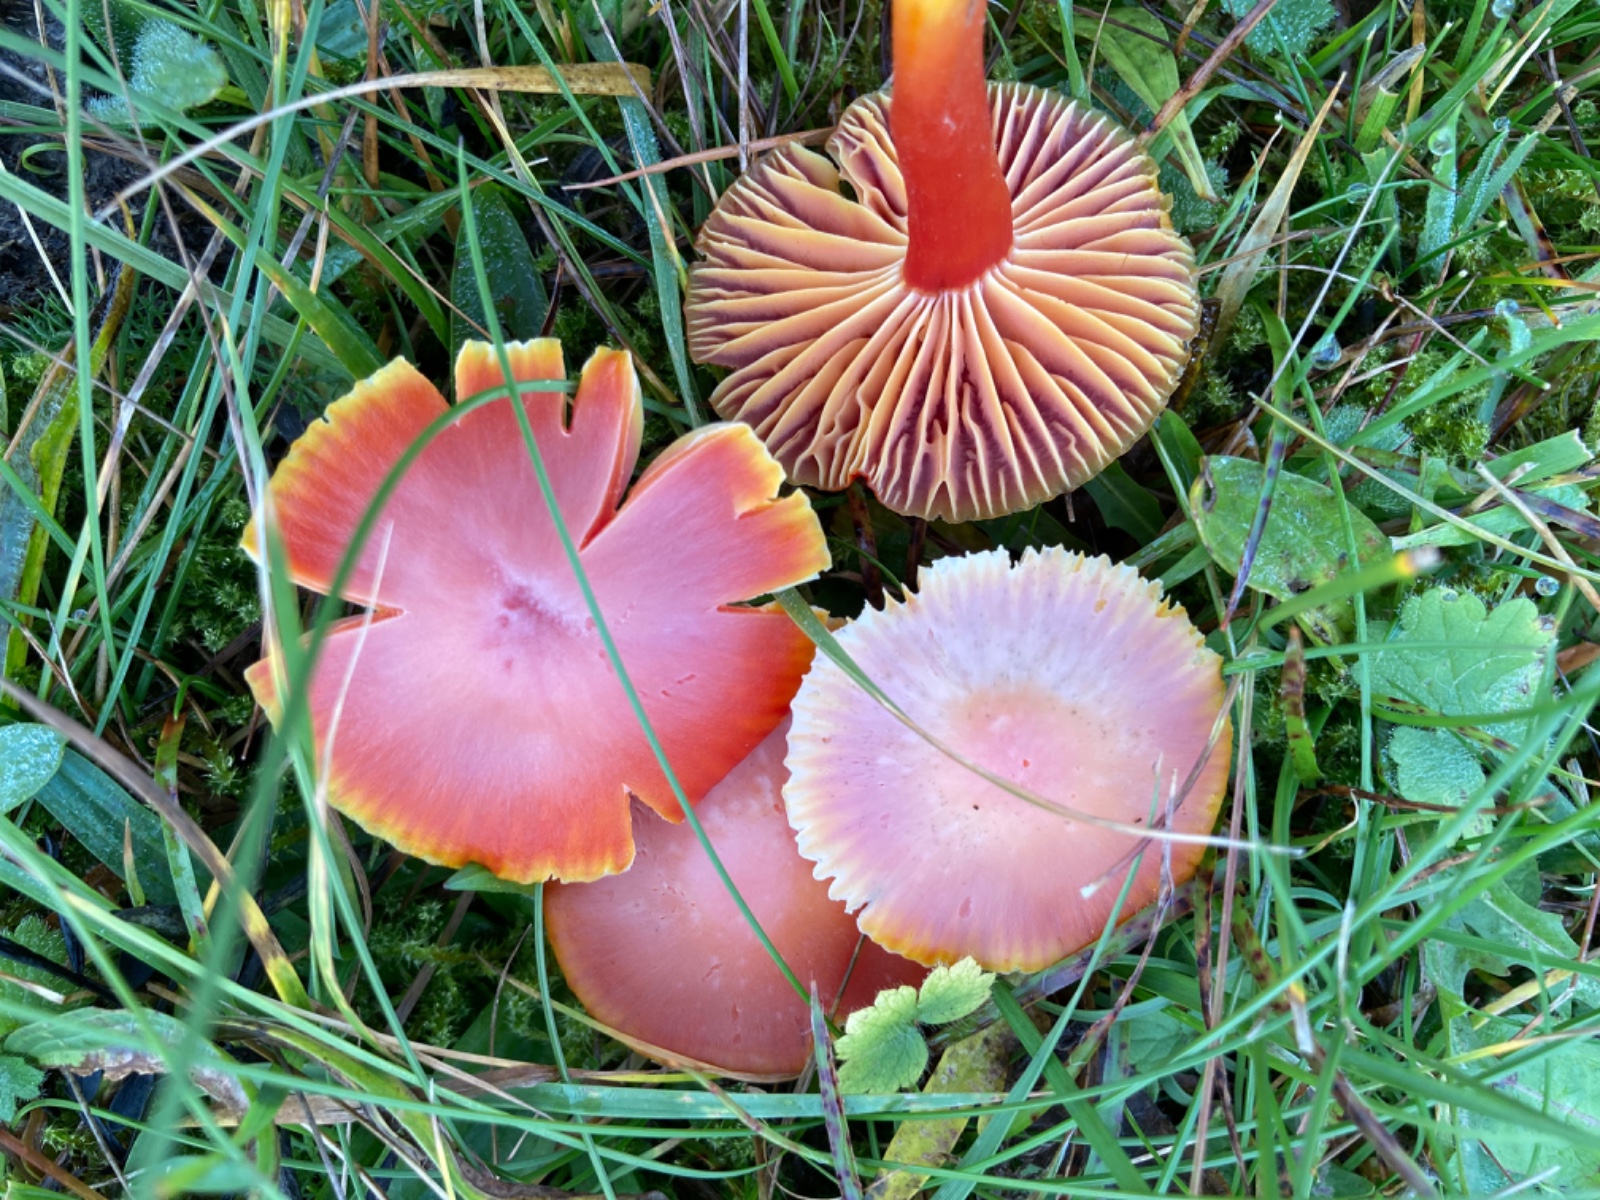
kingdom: Fungi
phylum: Basidiomycota
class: Agaricomycetes
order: Agaricales
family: Hygrophoraceae
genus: Hygrocybe
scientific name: Hygrocybe coccinea
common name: cinnober-vokshat
